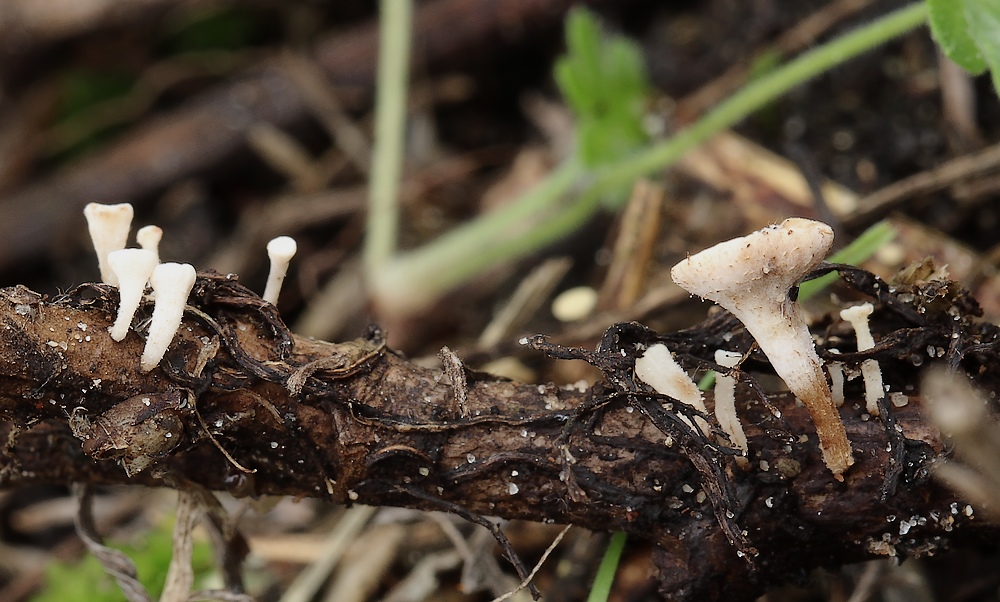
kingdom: Fungi
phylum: Ascomycota
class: Leotiomycetes
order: Helotiales
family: Helotiaceae
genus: Hymenoscyphus
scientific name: Hymenoscyphus scutula
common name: almindelig stilkskive
